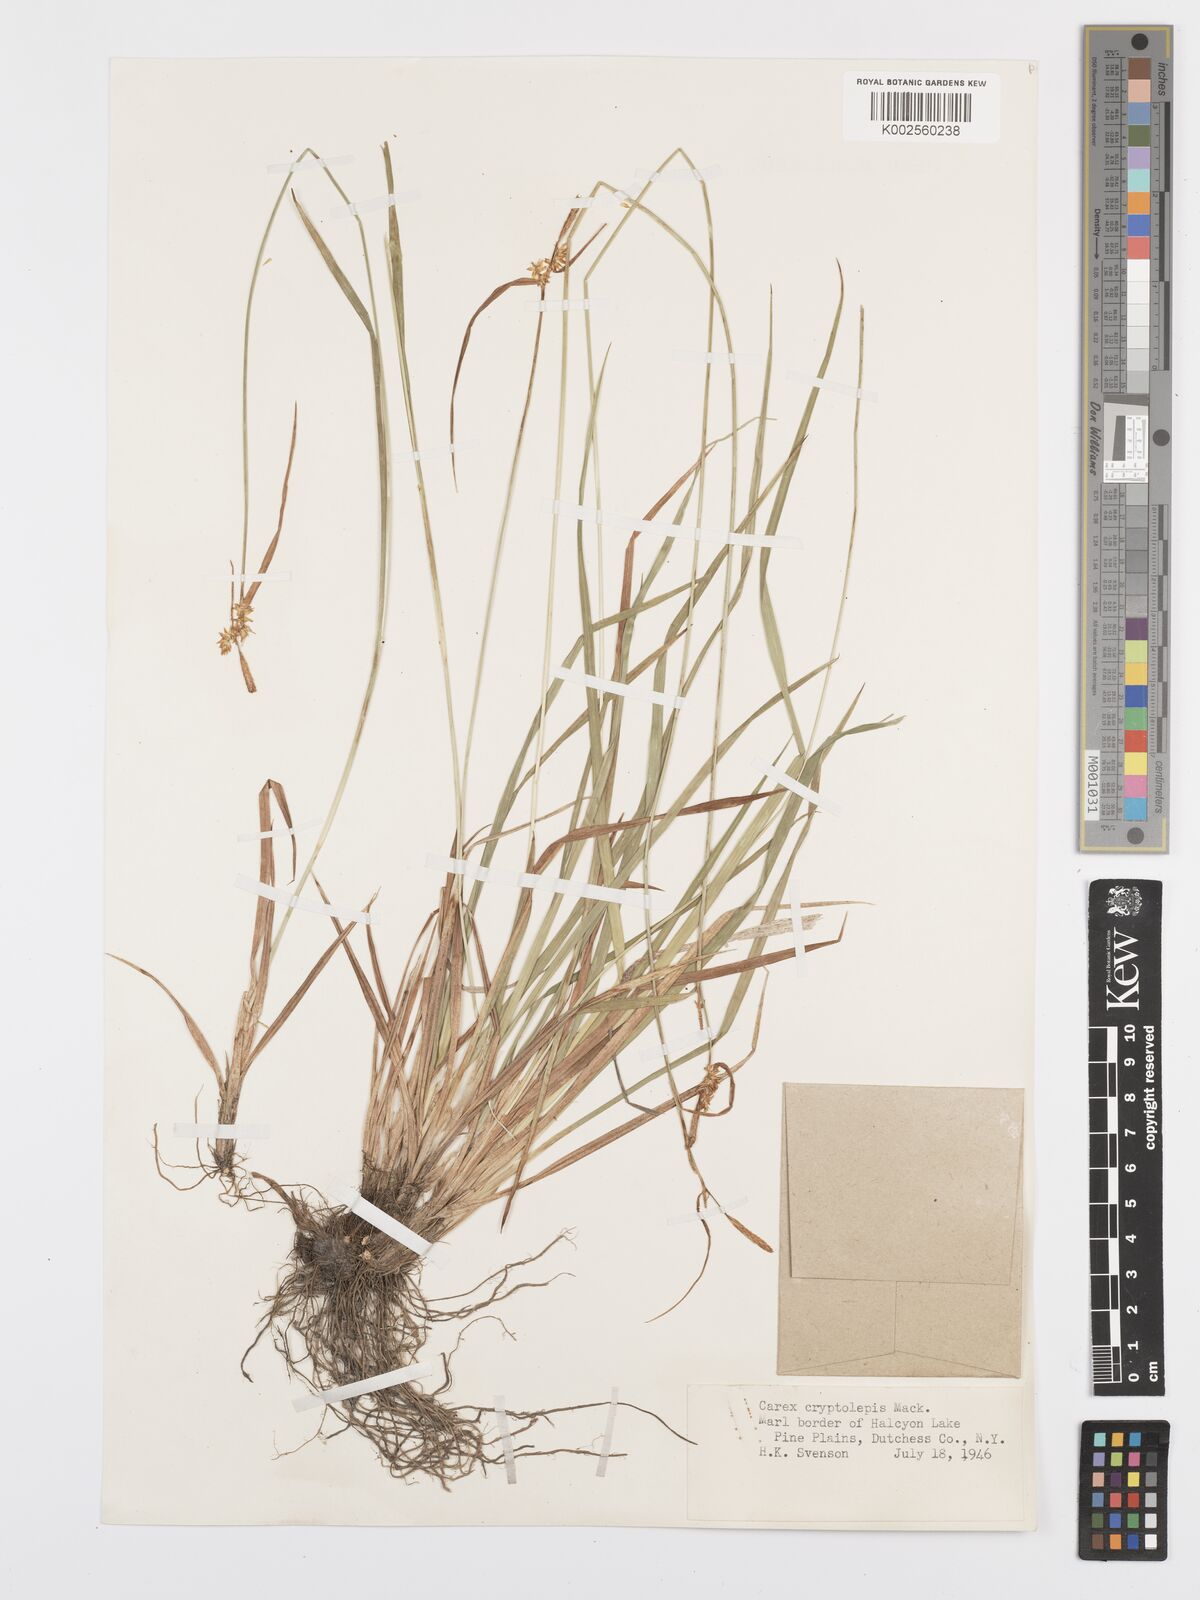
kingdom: Plantae
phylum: Tracheophyta
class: Liliopsida
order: Poales
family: Cyperaceae
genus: Carex
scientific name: Carex cryptolepis
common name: Northeastern sedge
